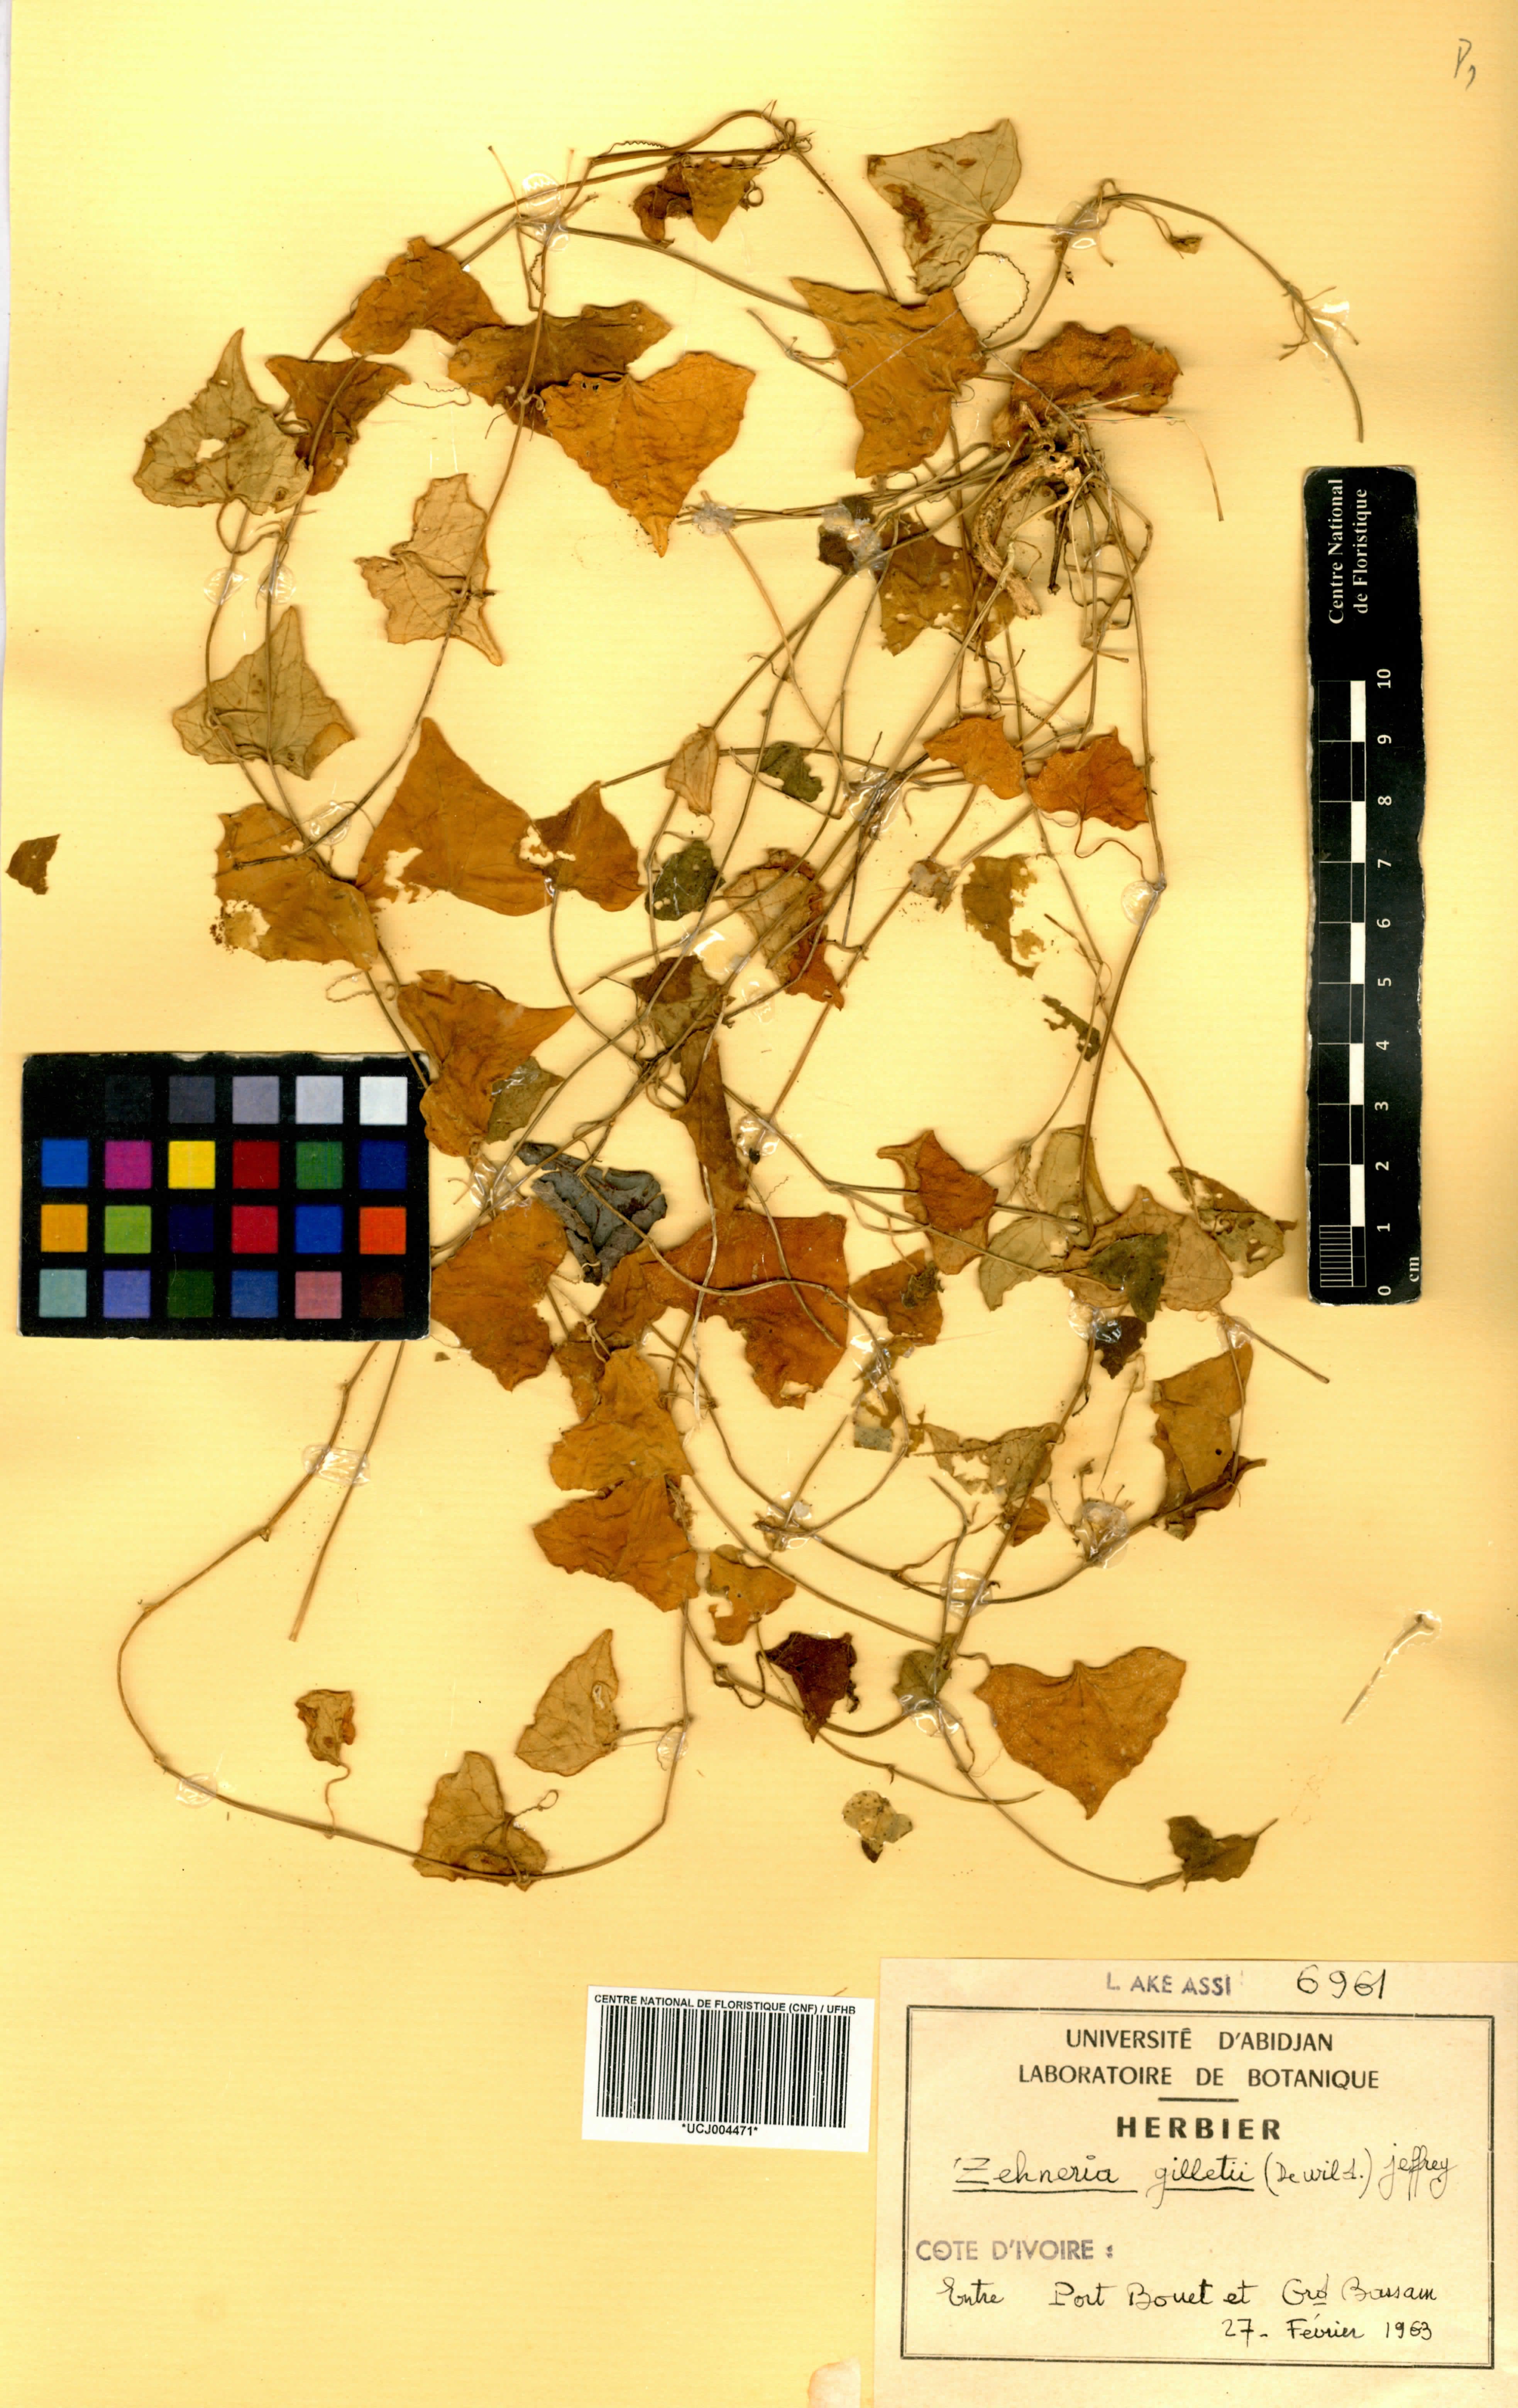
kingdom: Plantae
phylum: Tracheophyta
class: Magnoliopsida
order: Cucurbitales
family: Cucurbitaceae
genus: Zehneria
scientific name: Zehneria gilletii
